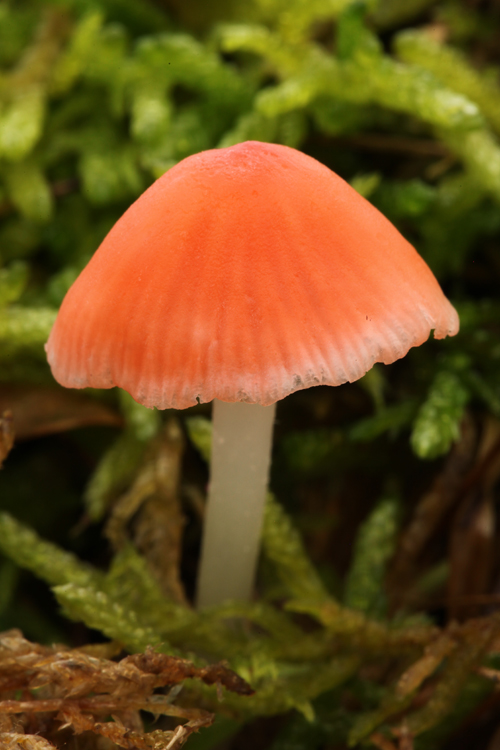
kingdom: Fungi
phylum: Basidiomycota
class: Agaricomycetes
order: Agaricales
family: Mycenaceae
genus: Atheniella
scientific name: Atheniella adonis
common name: rønnerød huesvamp
